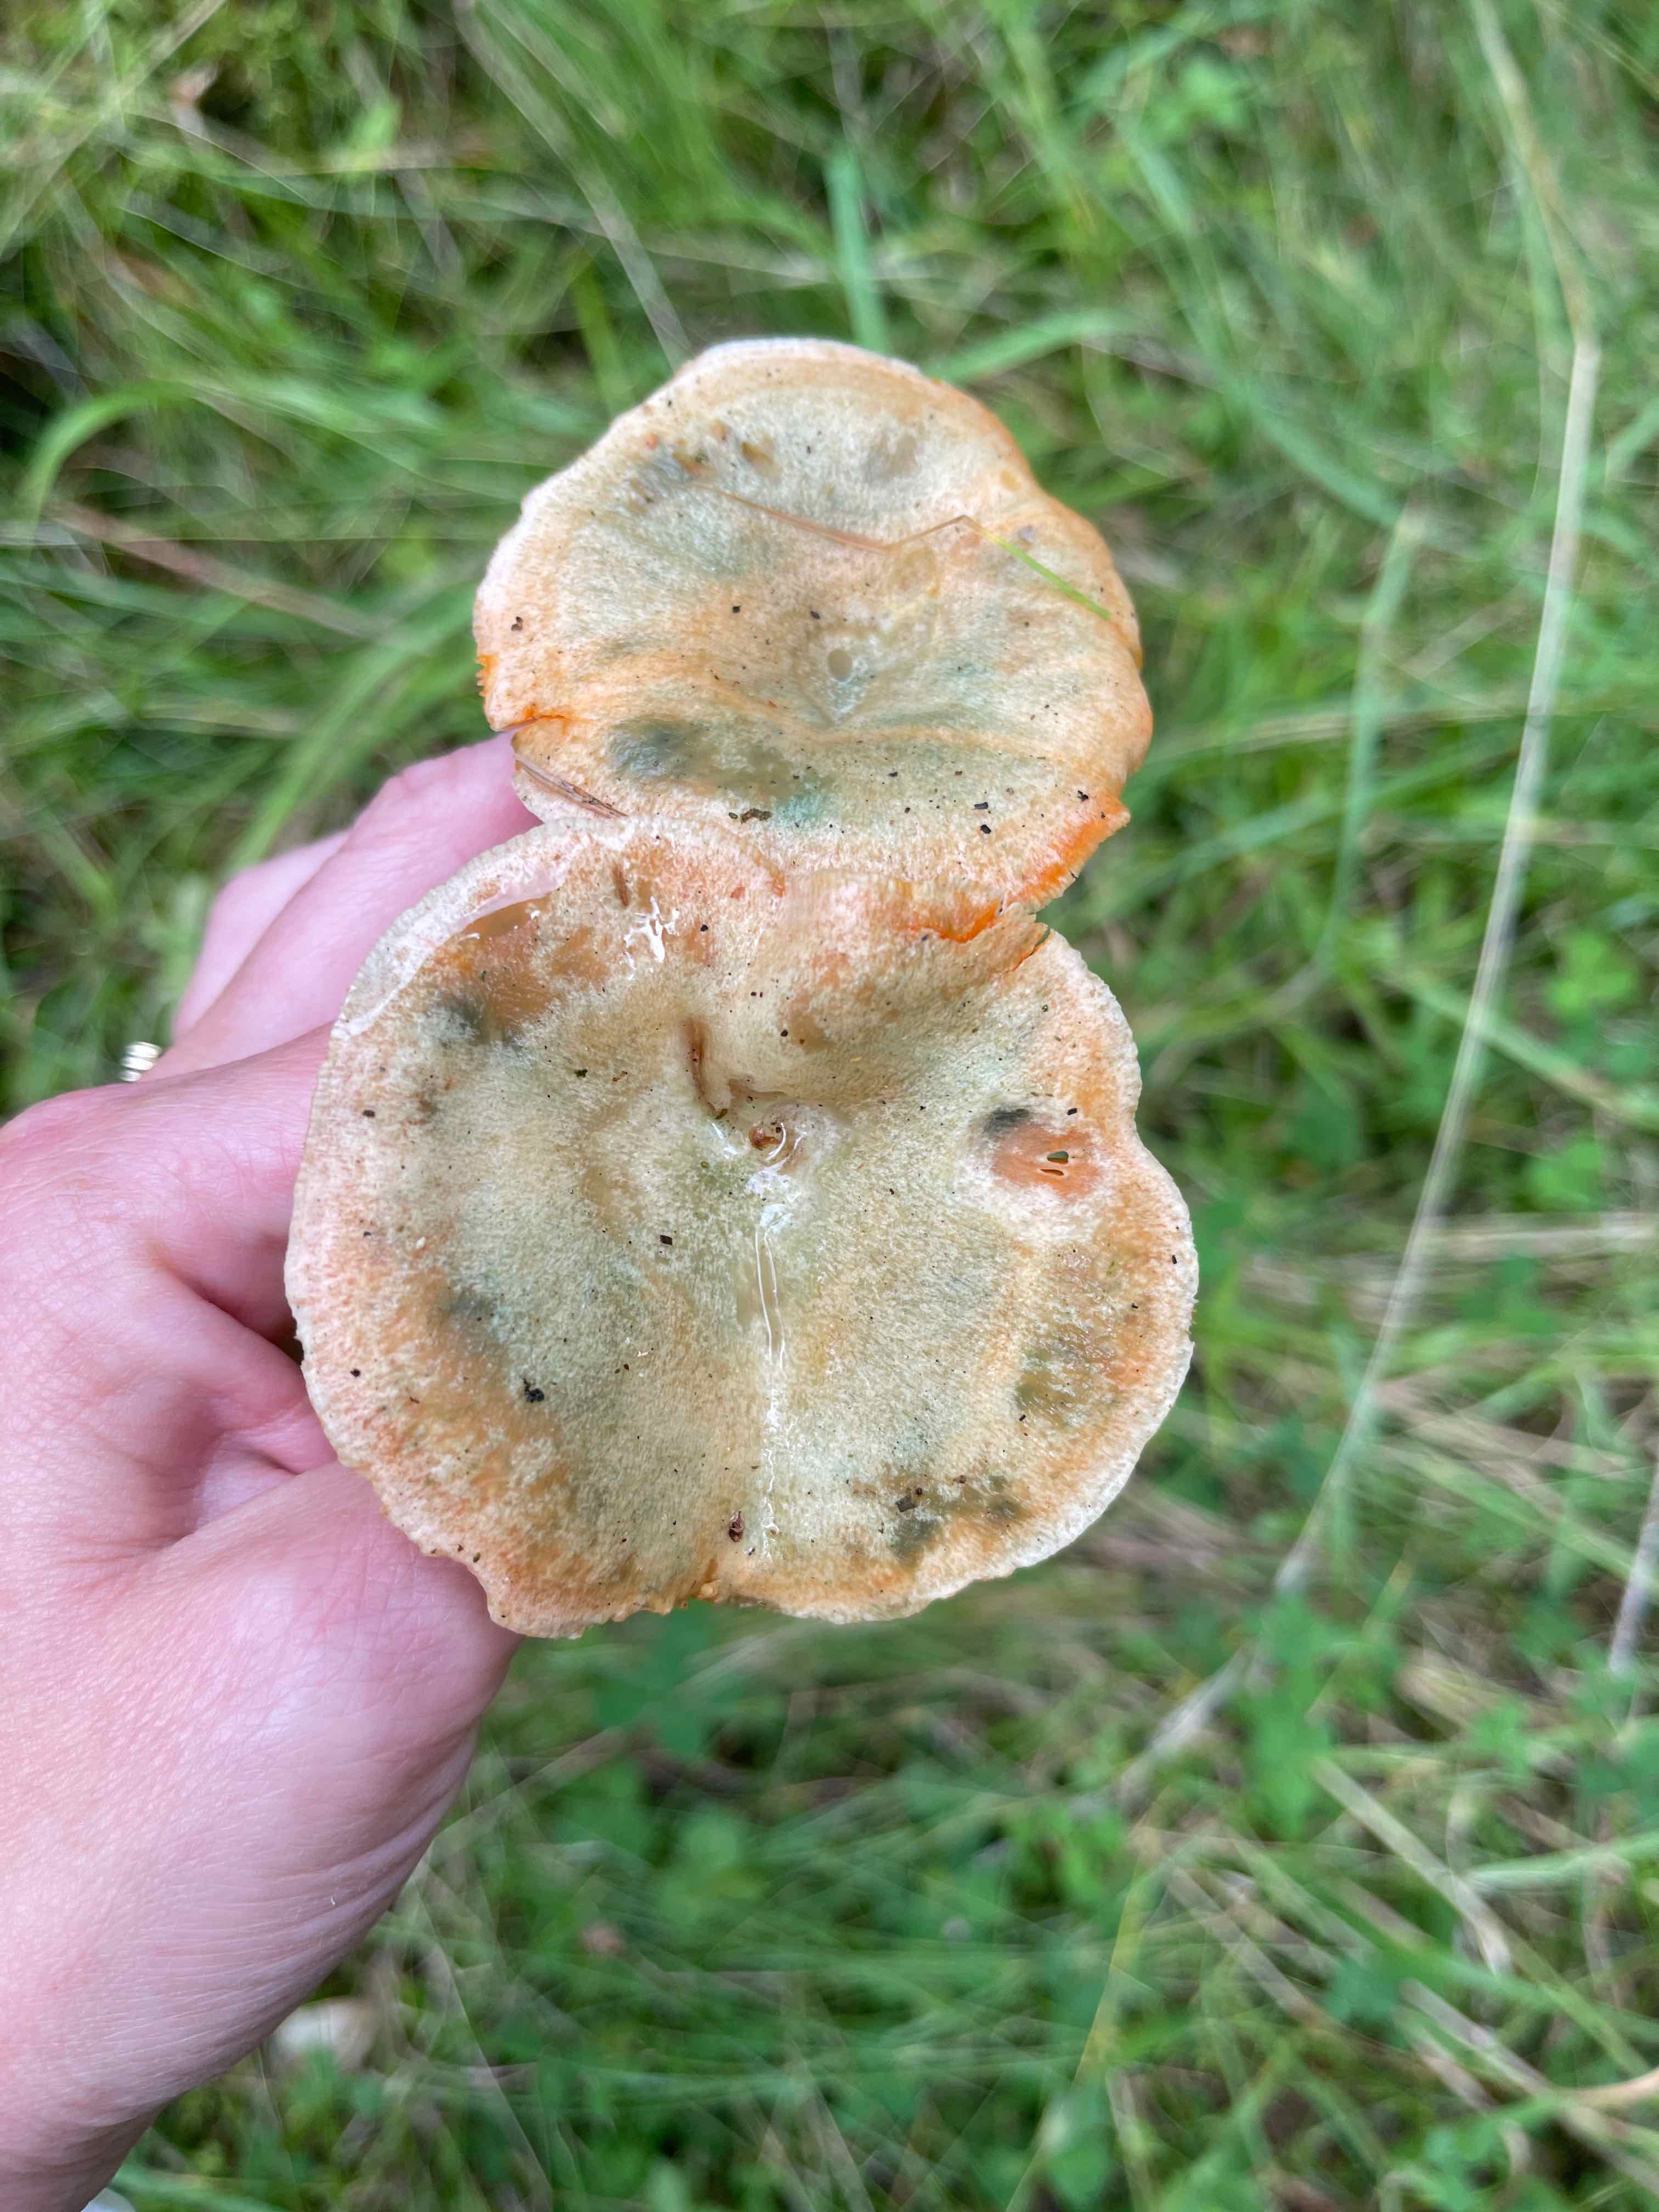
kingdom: Fungi
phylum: Basidiomycota
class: Agaricomycetes
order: Russulales
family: Russulaceae
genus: Lactarius
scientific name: Lactarius deterrimus
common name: gran-mælkehat
